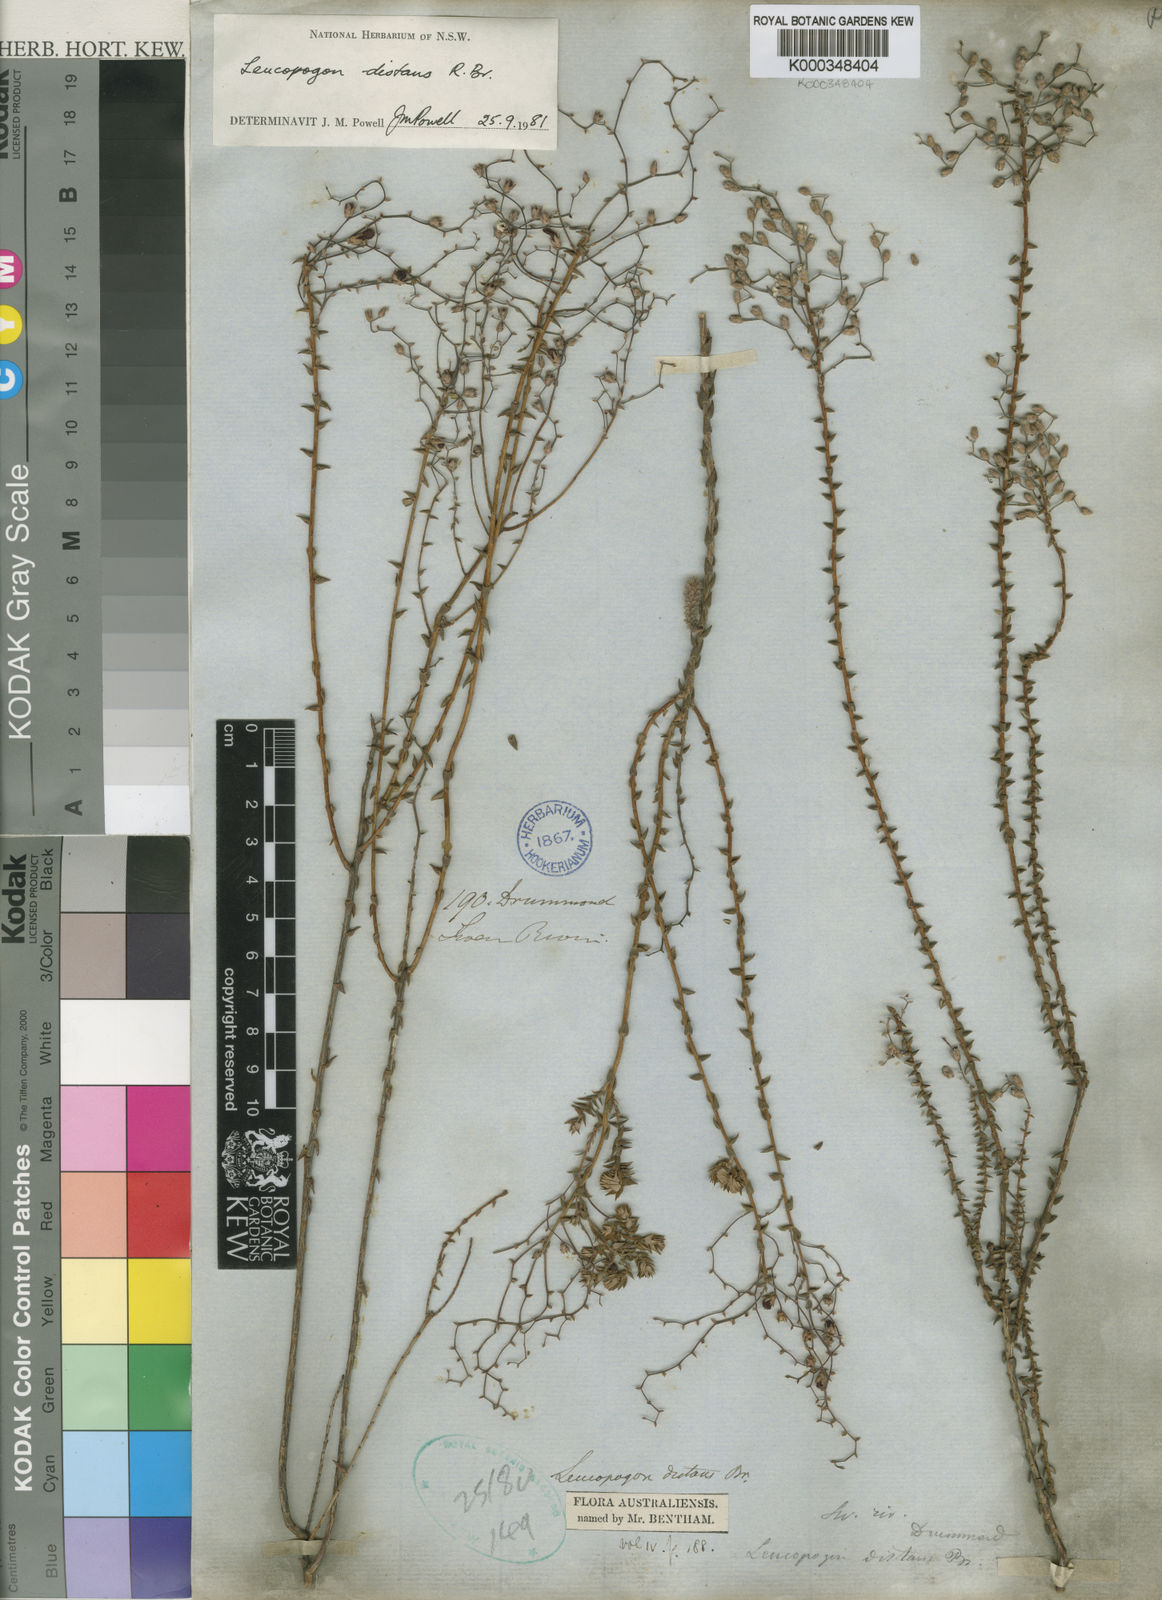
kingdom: Plantae
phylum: Tracheophyta
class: Magnoliopsida
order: Ericales
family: Ericaceae
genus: Leucopogon
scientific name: Leucopogon distans
